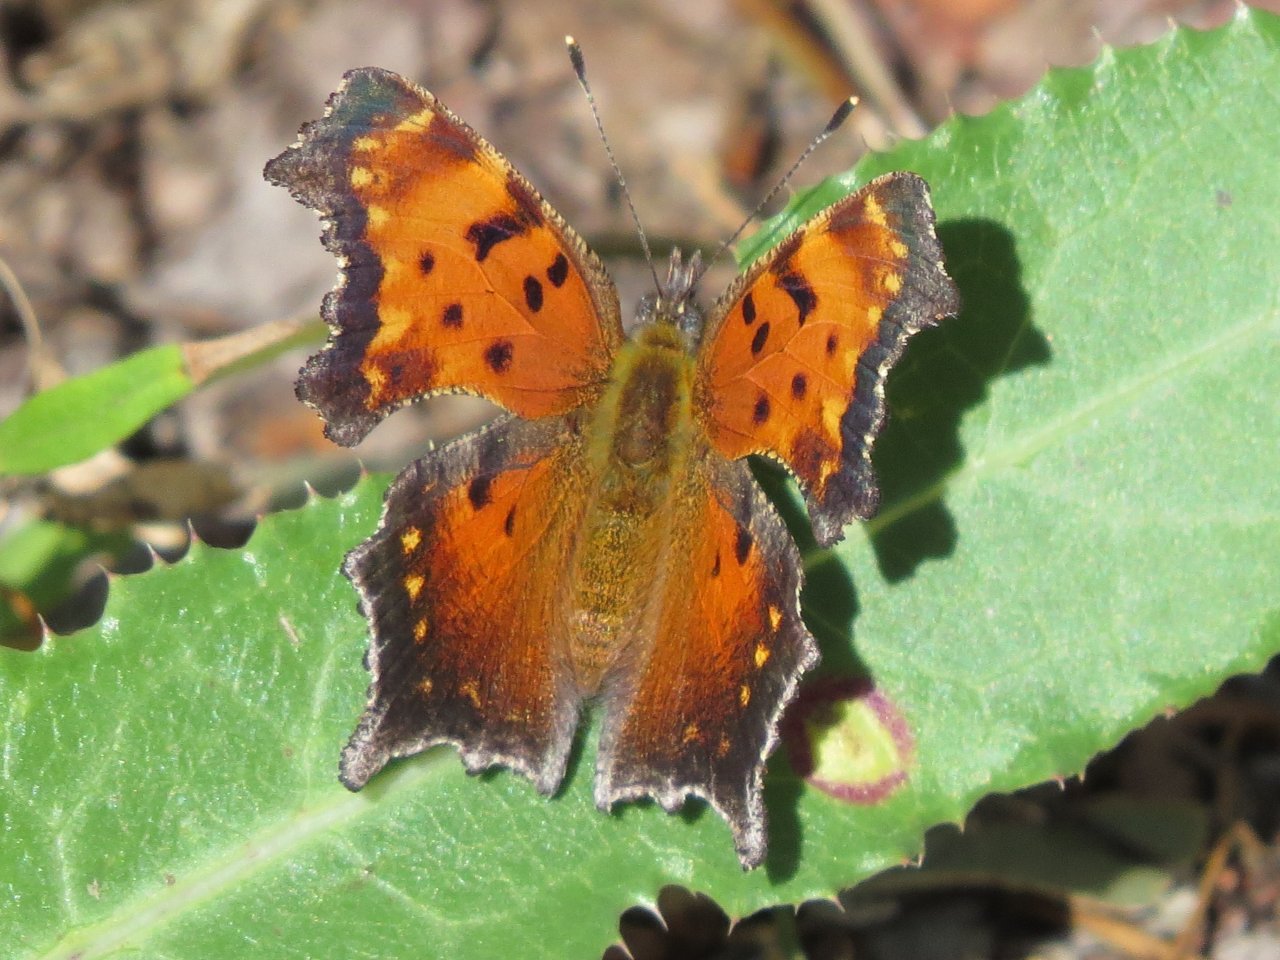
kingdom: Animalia
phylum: Arthropoda
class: Insecta
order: Lepidoptera
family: Nymphalidae
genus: Polygonia
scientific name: Polygonia progne
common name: Gray Comma
